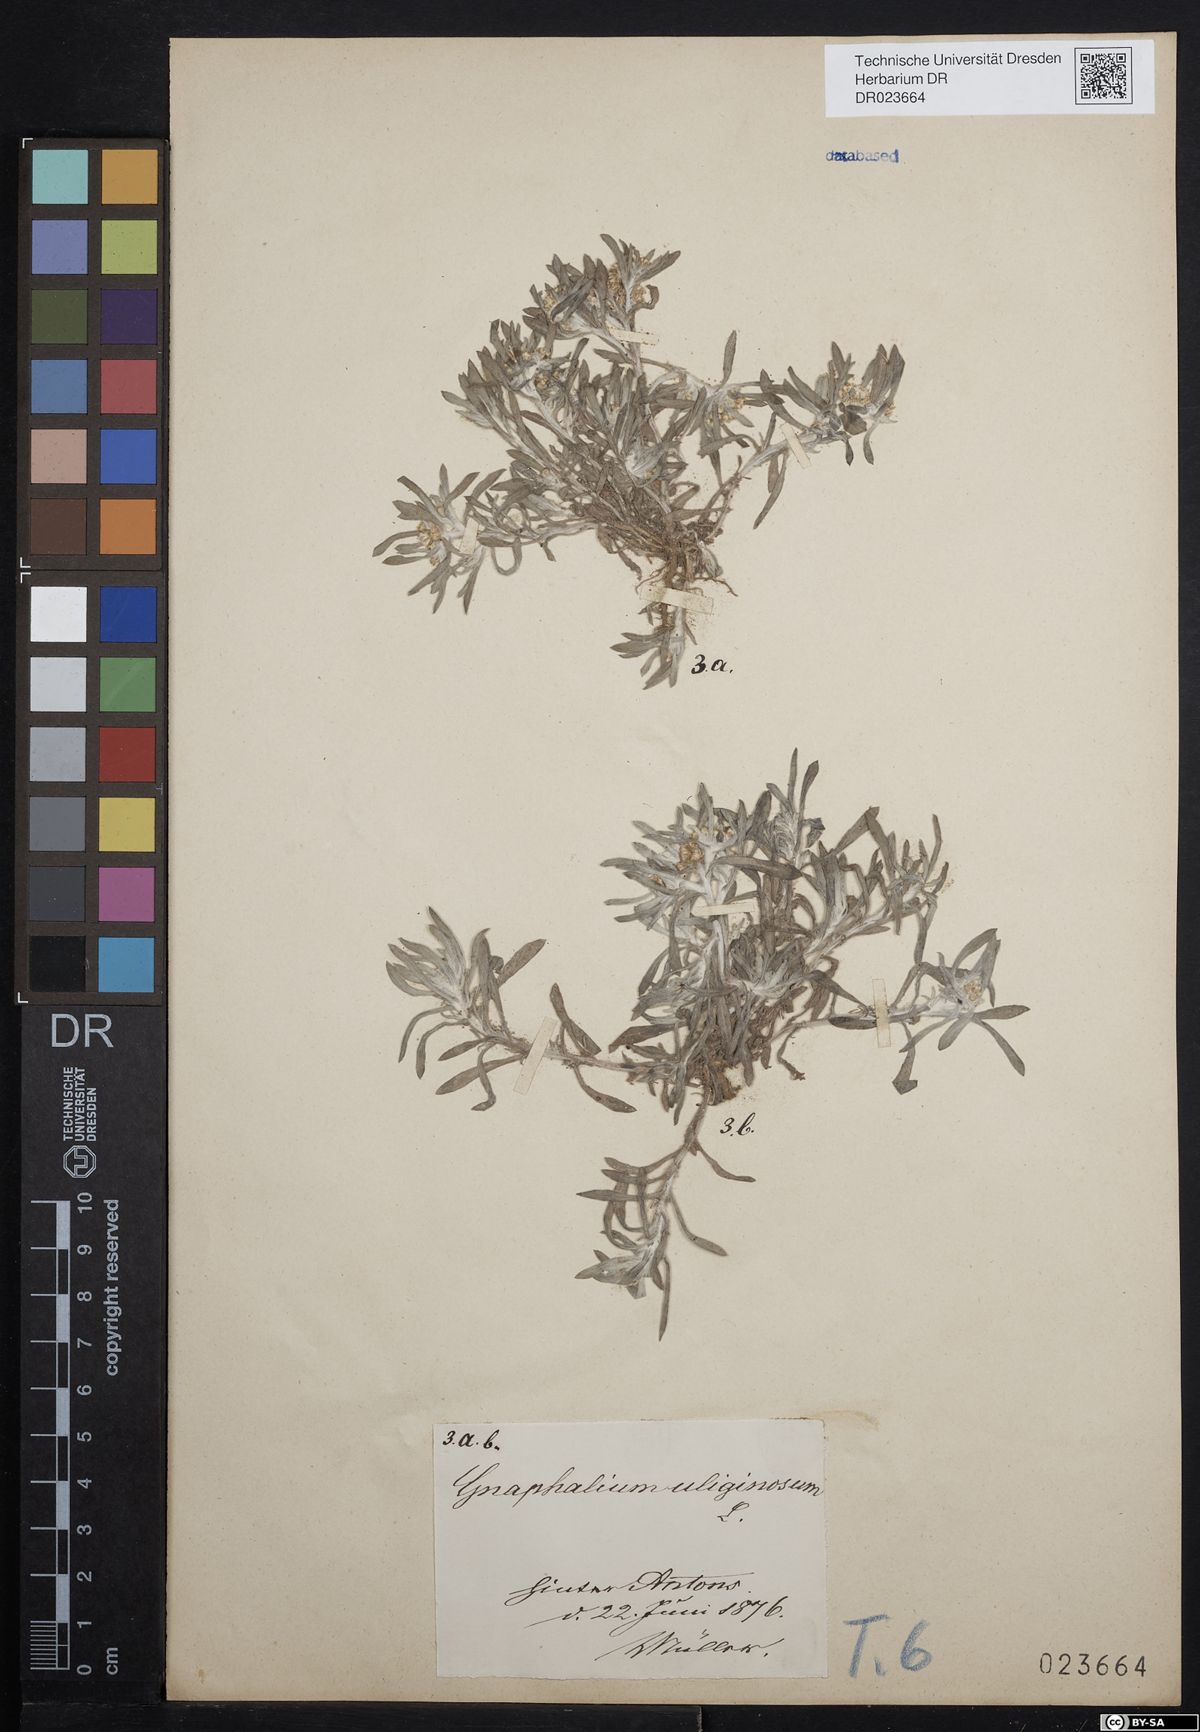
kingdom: Plantae
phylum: Tracheophyta
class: Magnoliopsida
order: Asterales
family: Asteraceae
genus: Gnaphalium
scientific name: Gnaphalium uliginosum
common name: Marsh cudweed
